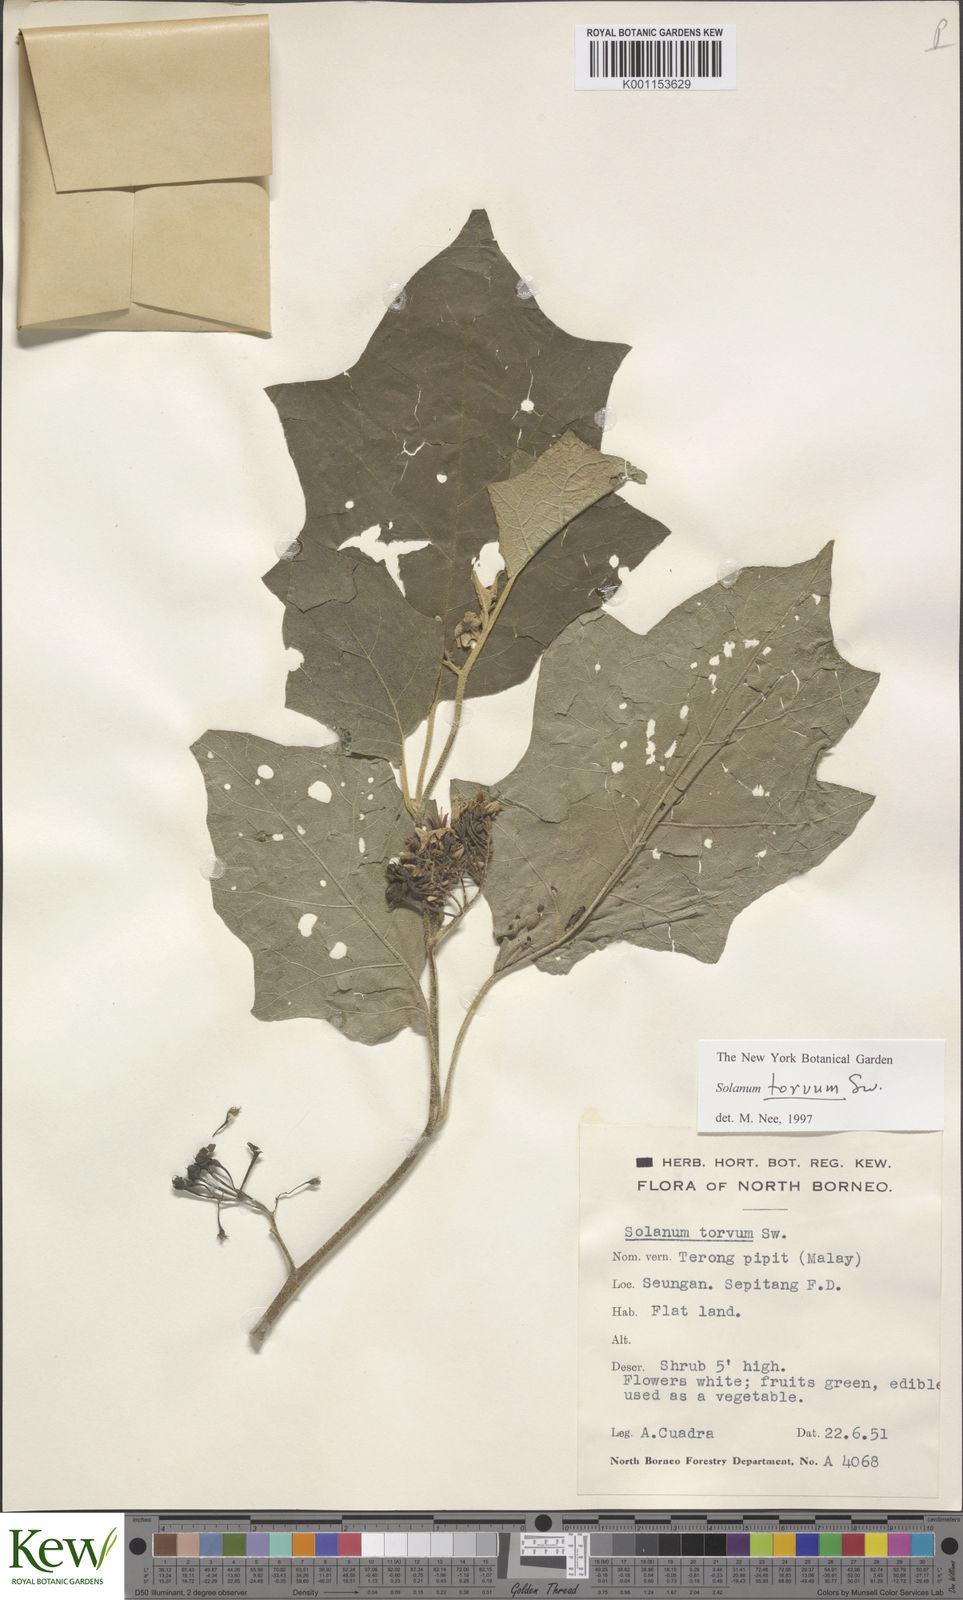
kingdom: Plantae
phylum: Tracheophyta
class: Magnoliopsida
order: Solanales
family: Solanaceae
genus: Solanum
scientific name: Solanum torvum
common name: Turkey berry
